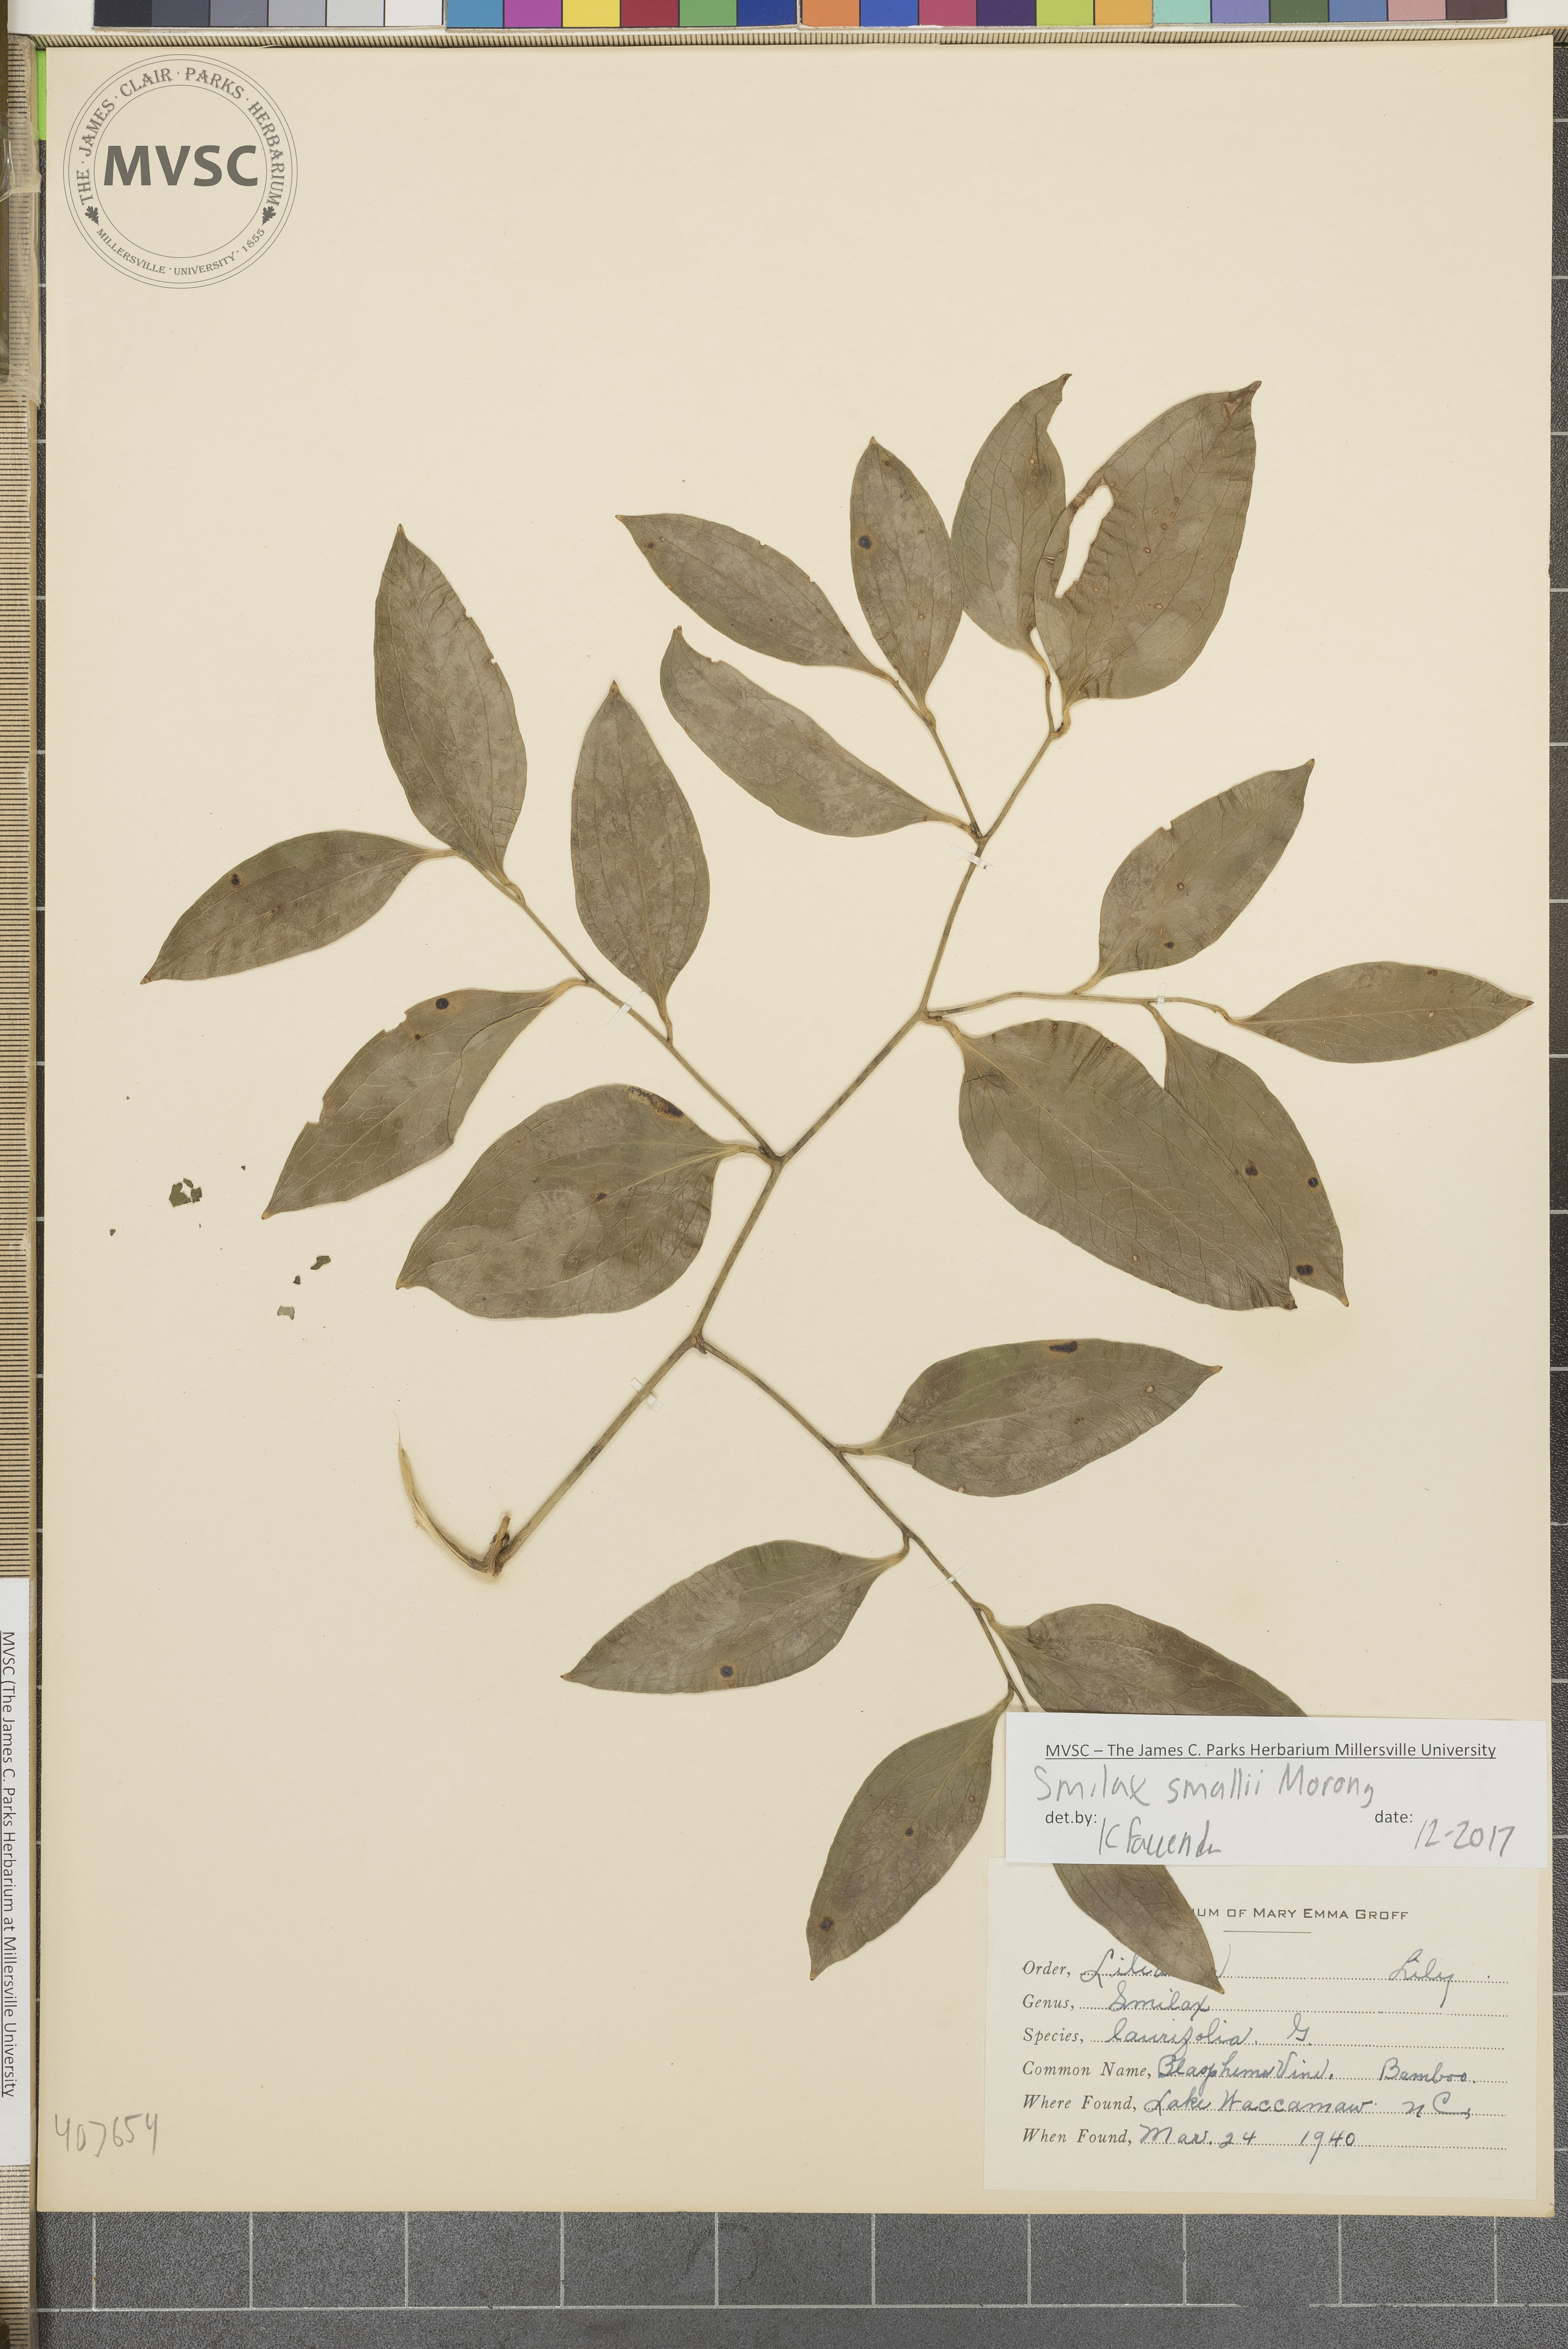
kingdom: Plantae
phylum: Tracheophyta
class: Liliopsida
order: Liliales
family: Smilacaceae
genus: Smilax
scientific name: Smilax maritima
